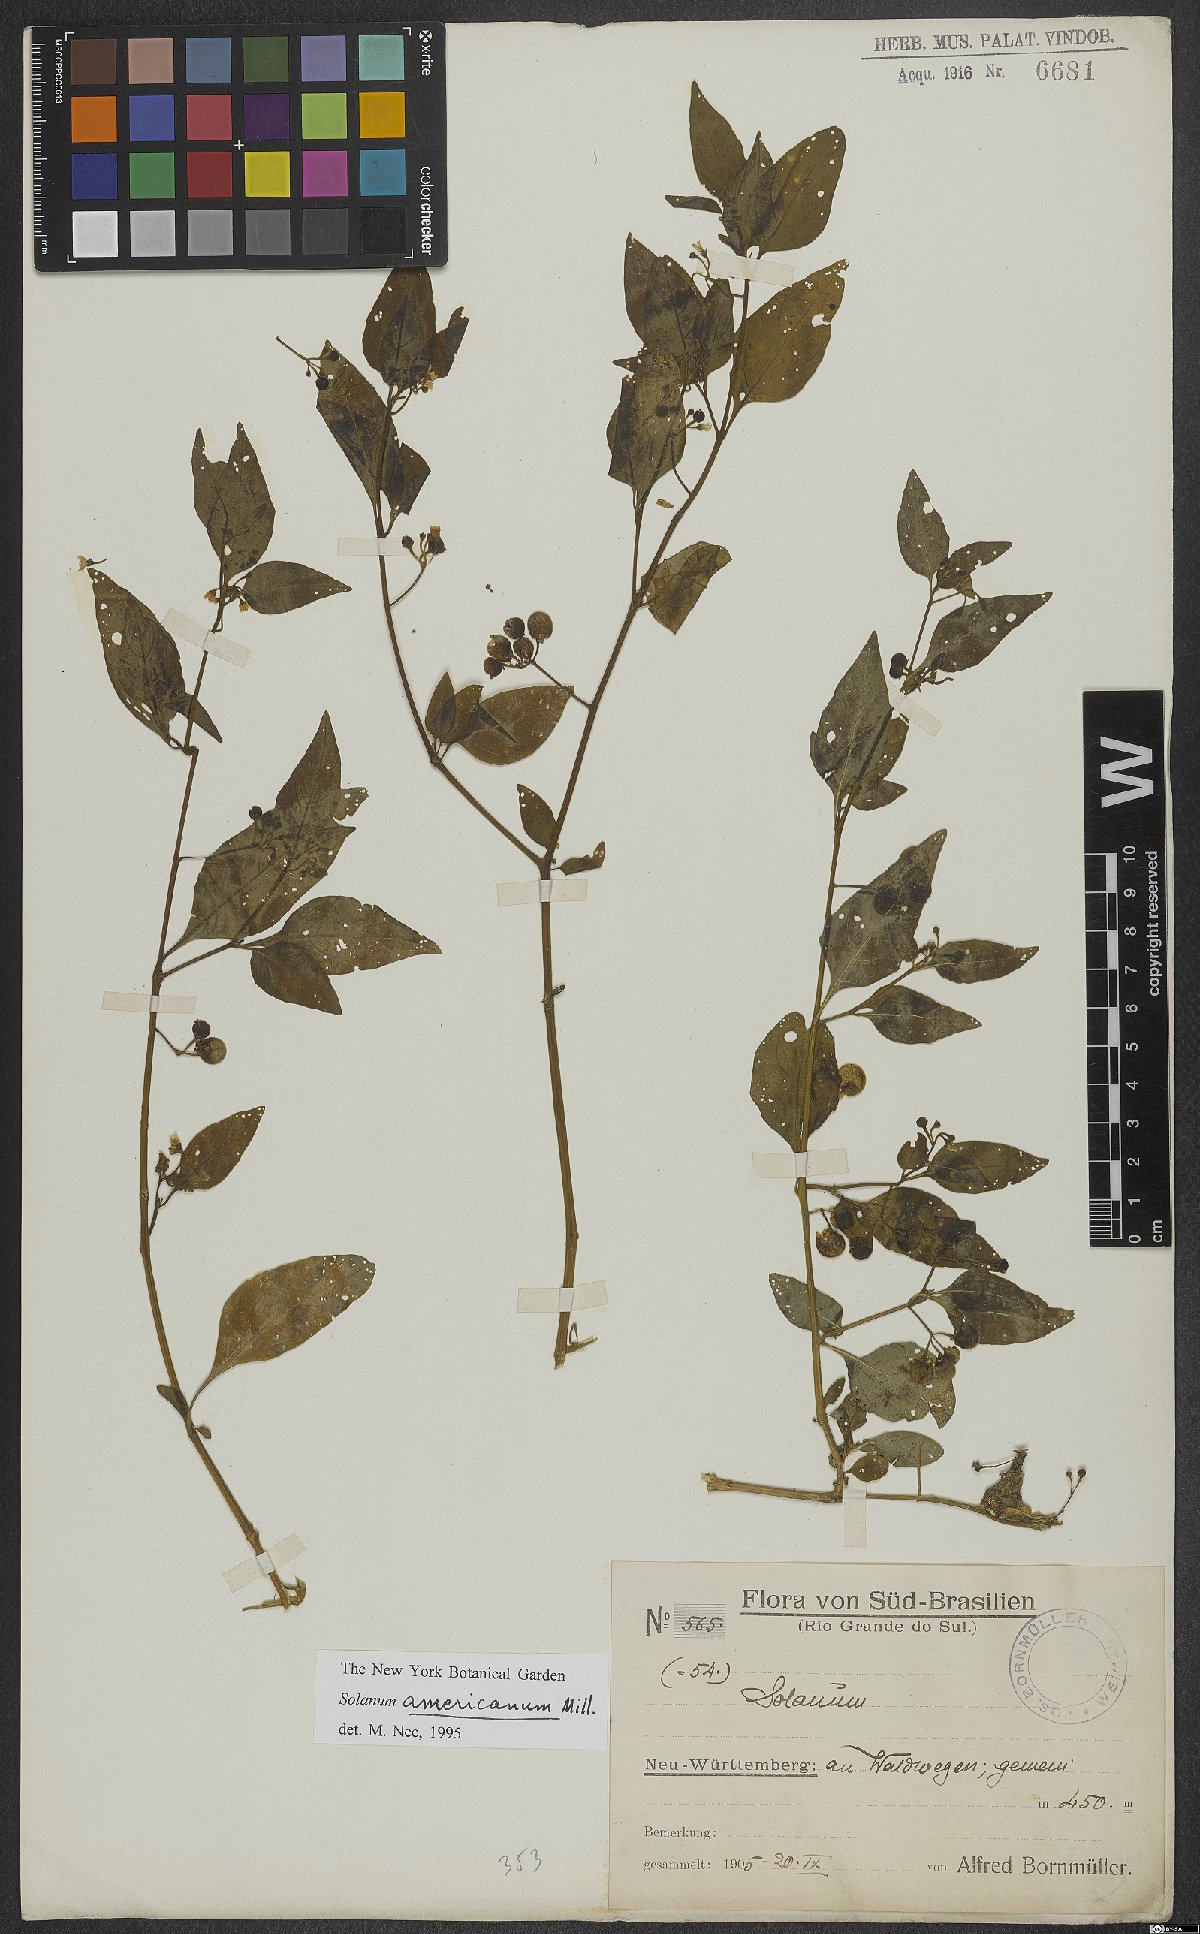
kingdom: Plantae
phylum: Tracheophyta
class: Magnoliopsida
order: Solanales
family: Solanaceae
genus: Solanum
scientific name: Solanum americanum
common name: American black nightshade
